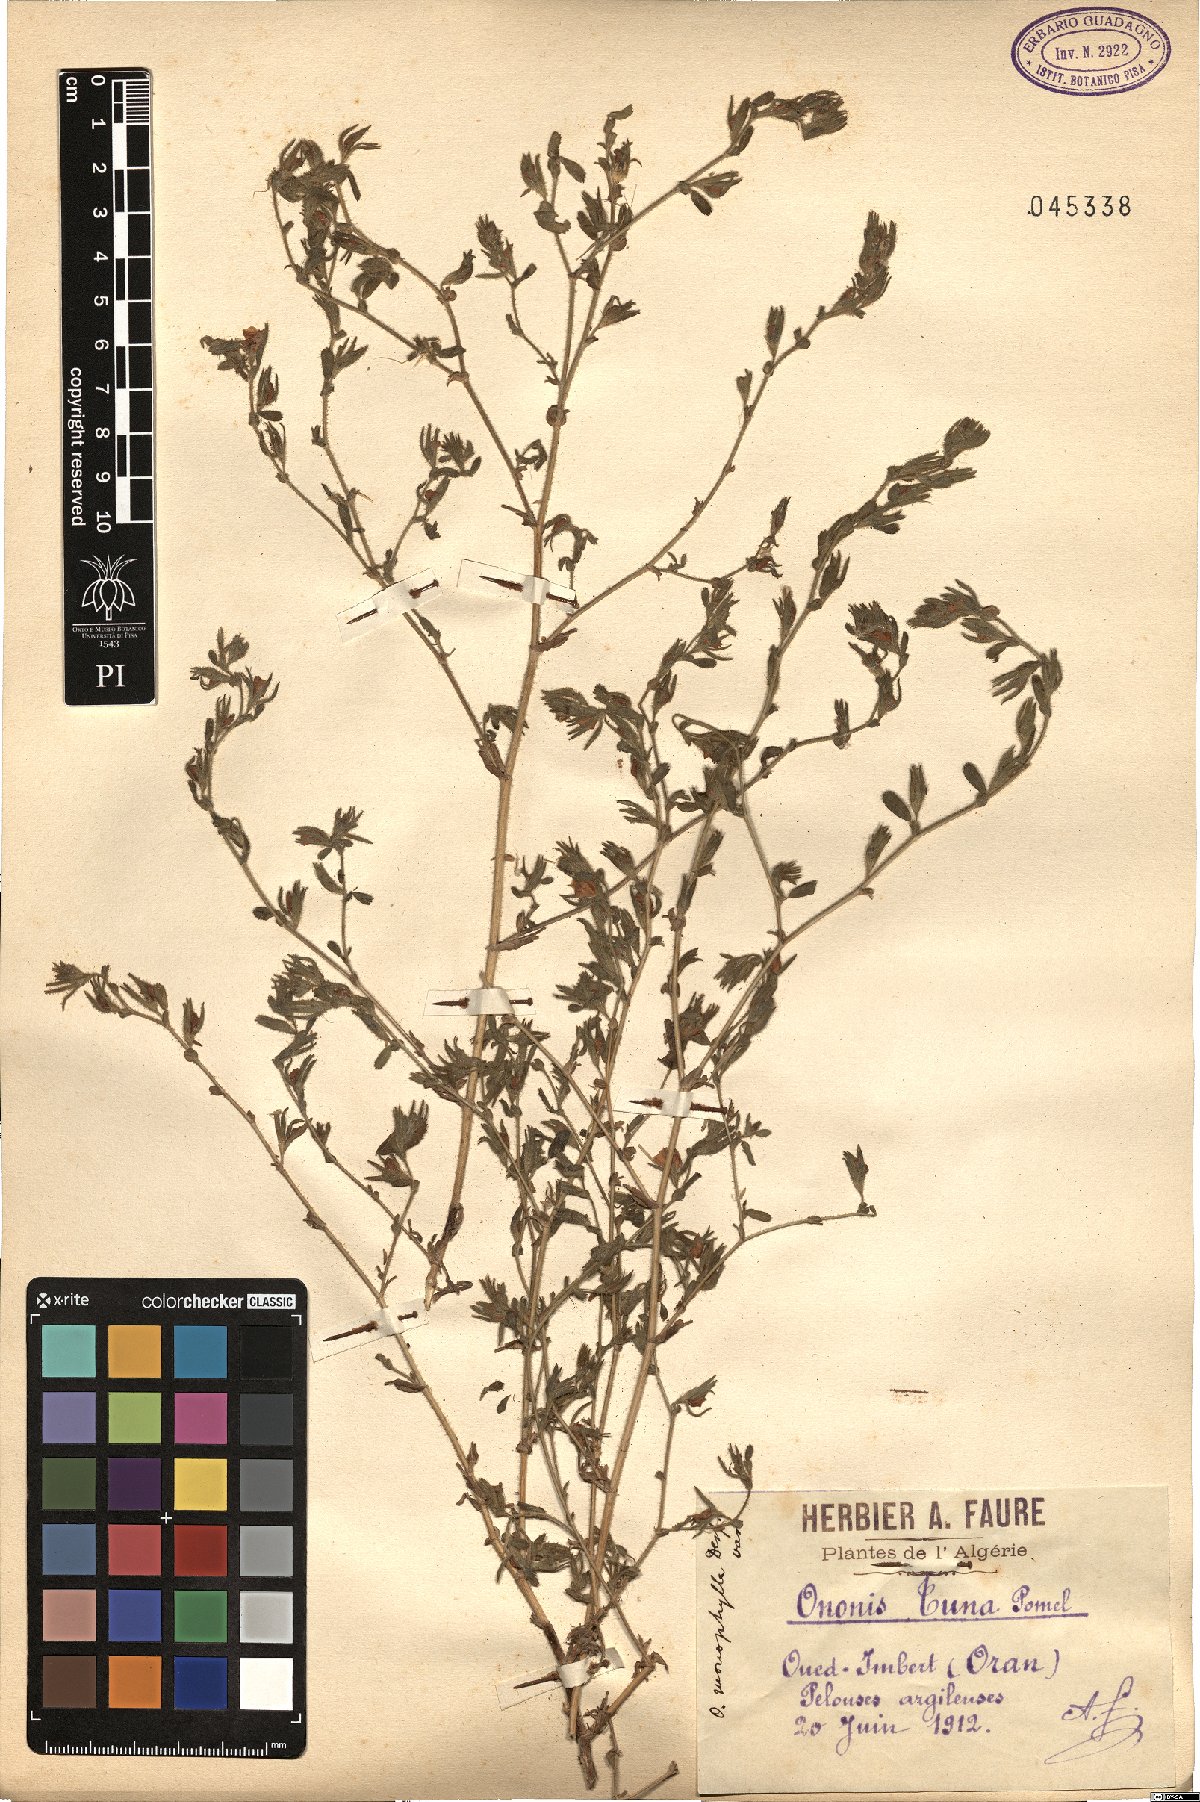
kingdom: Plantae
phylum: Tracheophyta
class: Magnoliopsida
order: Fabales
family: Fabaceae
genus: Ononis
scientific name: Ononis alba
